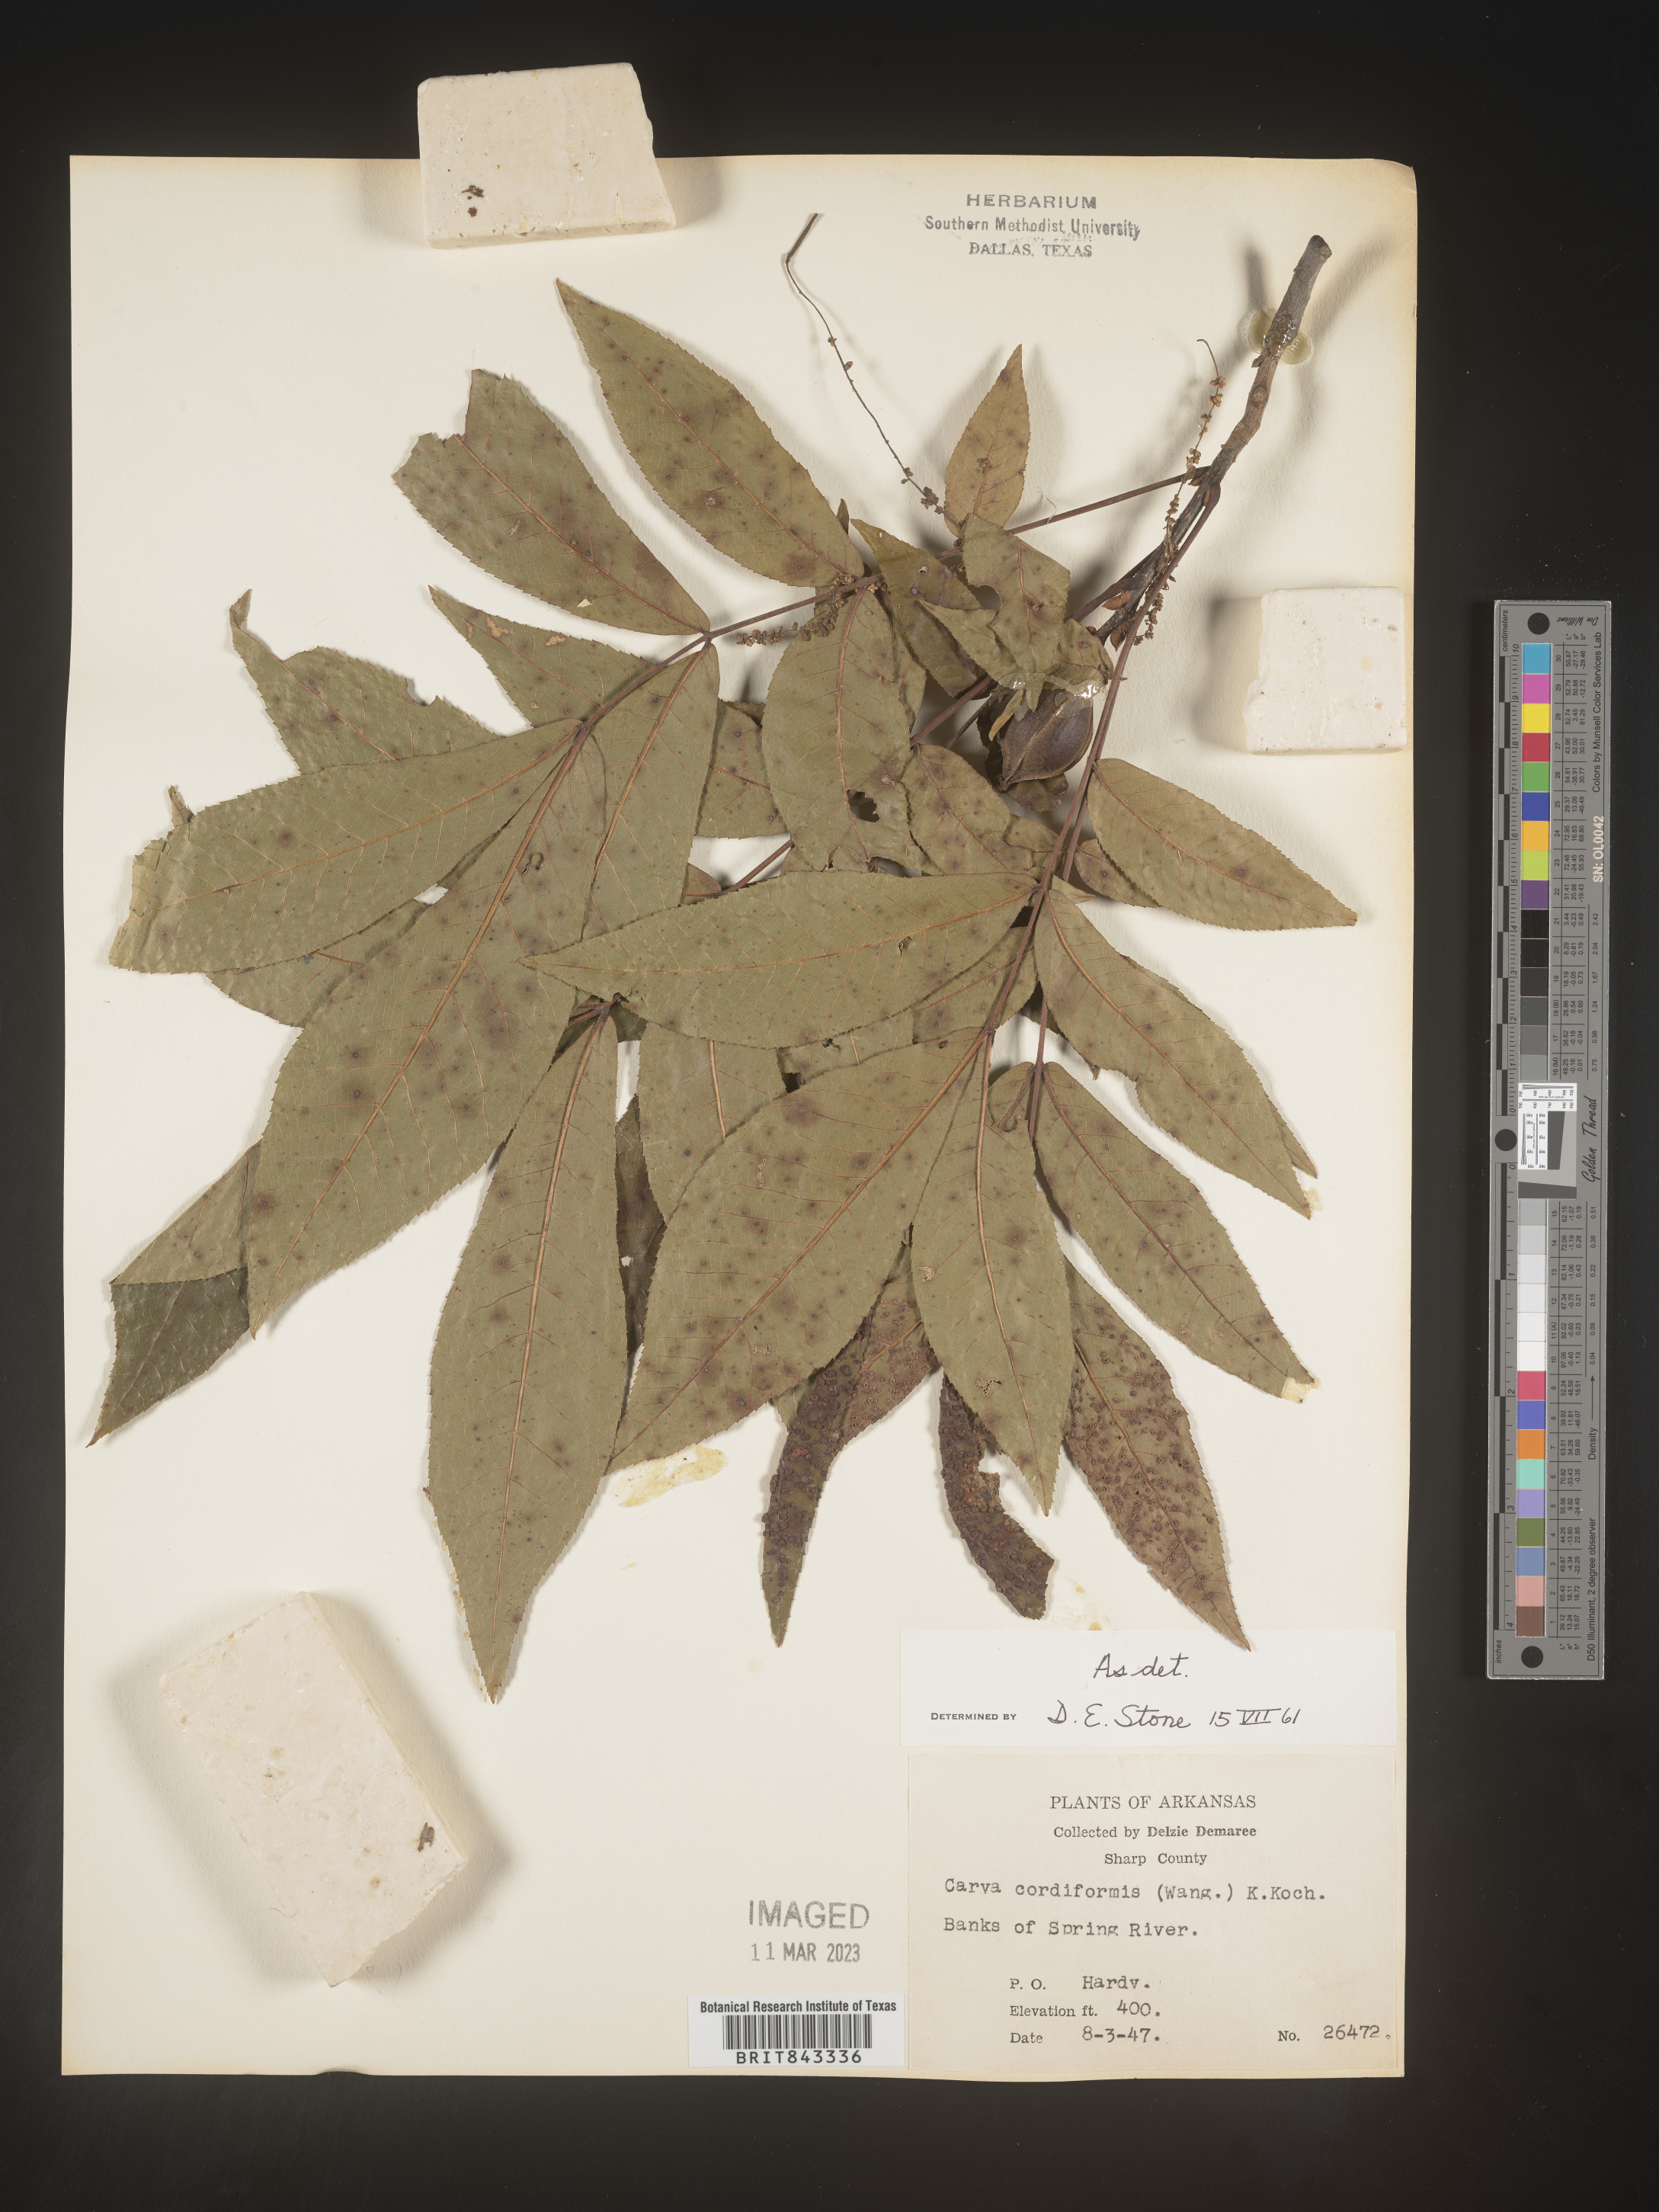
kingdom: Plantae
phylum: Tracheophyta
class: Magnoliopsida
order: Fagales
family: Juglandaceae
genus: Carya
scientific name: Carya cordiformis
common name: Bitternut hickory
